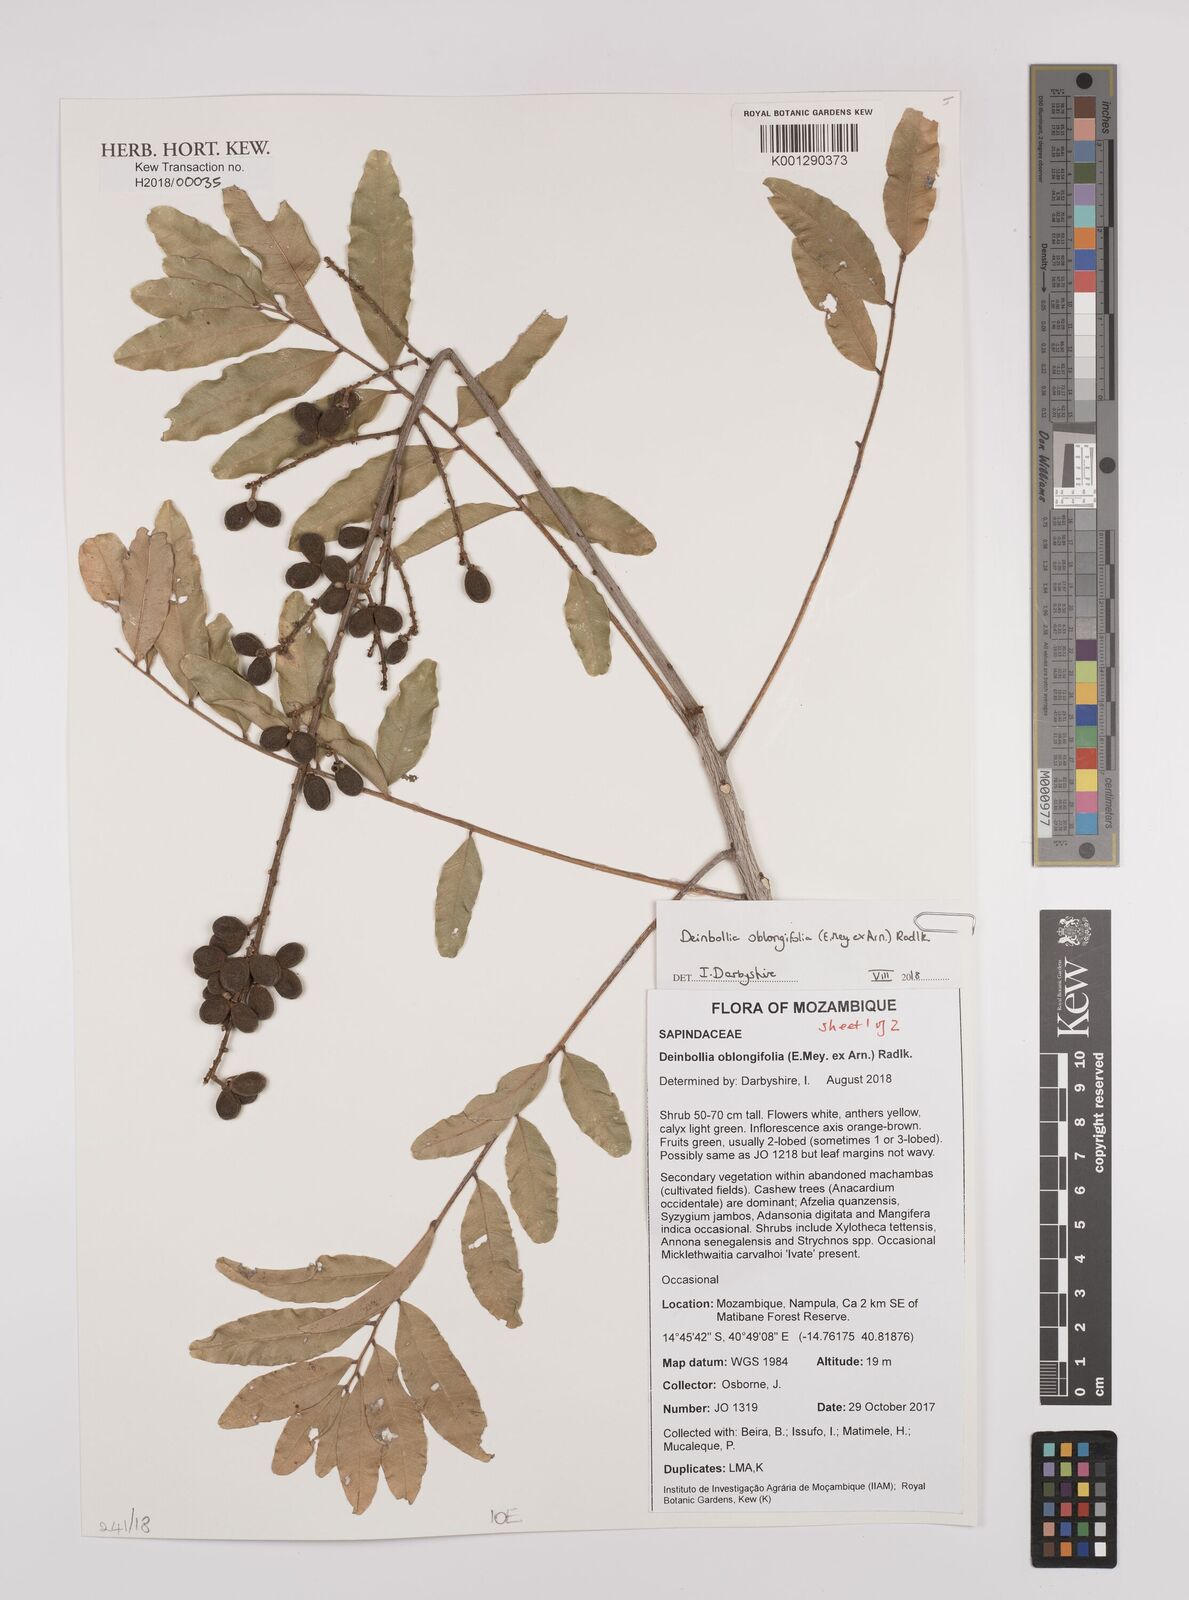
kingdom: Plantae
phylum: Tracheophyta
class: Magnoliopsida
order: Sapindales
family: Sapindaceae
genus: Deinbollia
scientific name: Deinbollia oblongifolia
